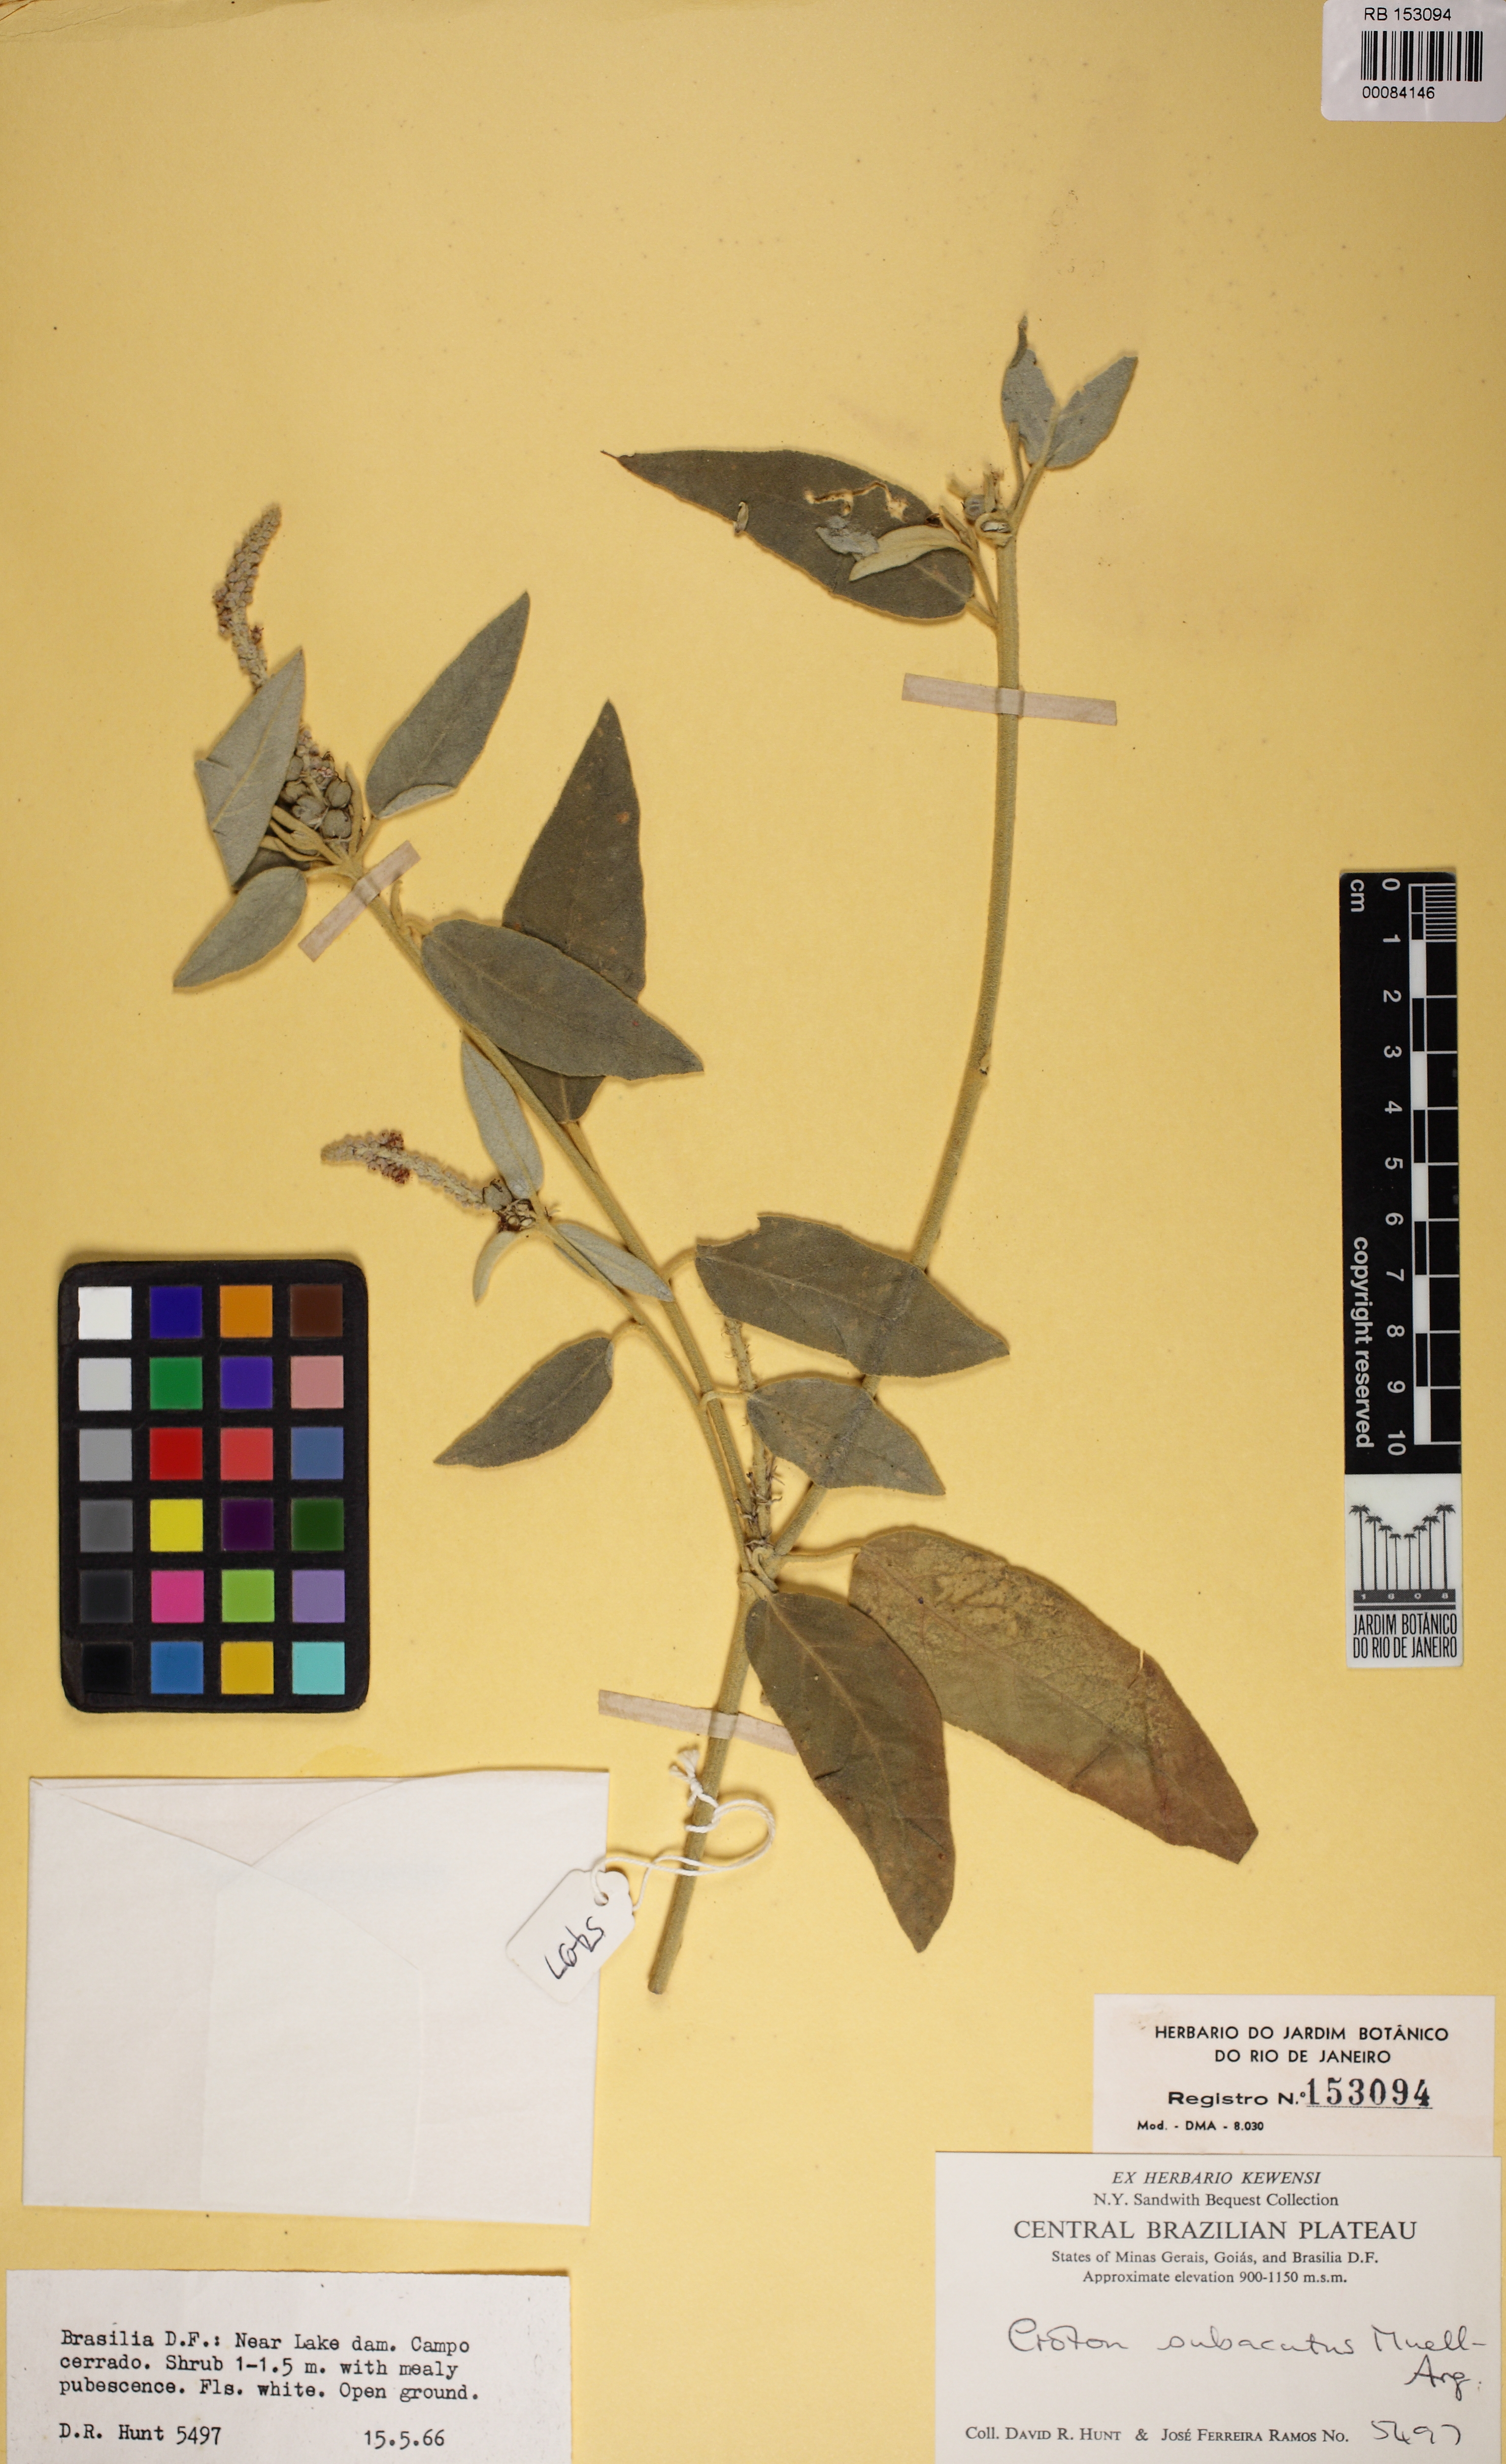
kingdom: Plantae
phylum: Tracheophyta
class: Magnoliopsida
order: Malpighiales
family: Euphorbiaceae
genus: Croton
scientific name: Croton subacutus
